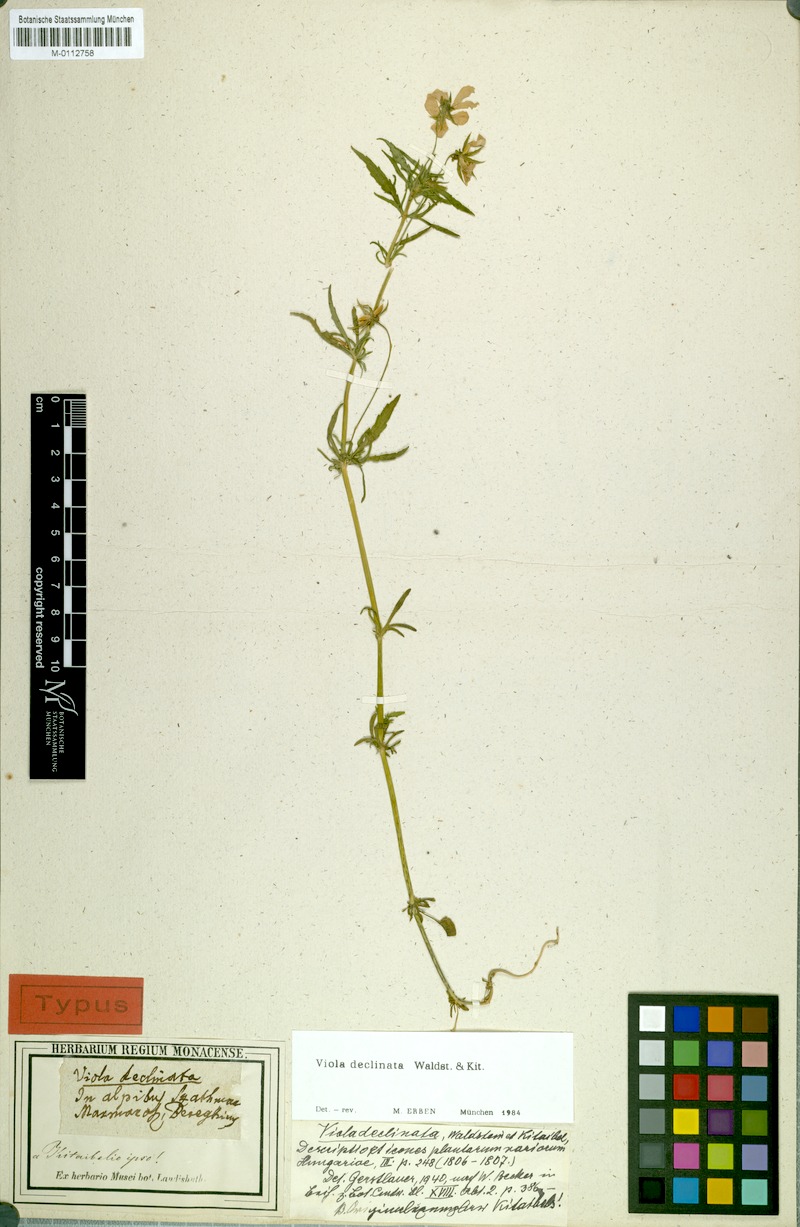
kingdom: Plantae
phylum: Tracheophyta
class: Magnoliopsida
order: Malpighiales
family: Violaceae
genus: Viola
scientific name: Viola declinata
